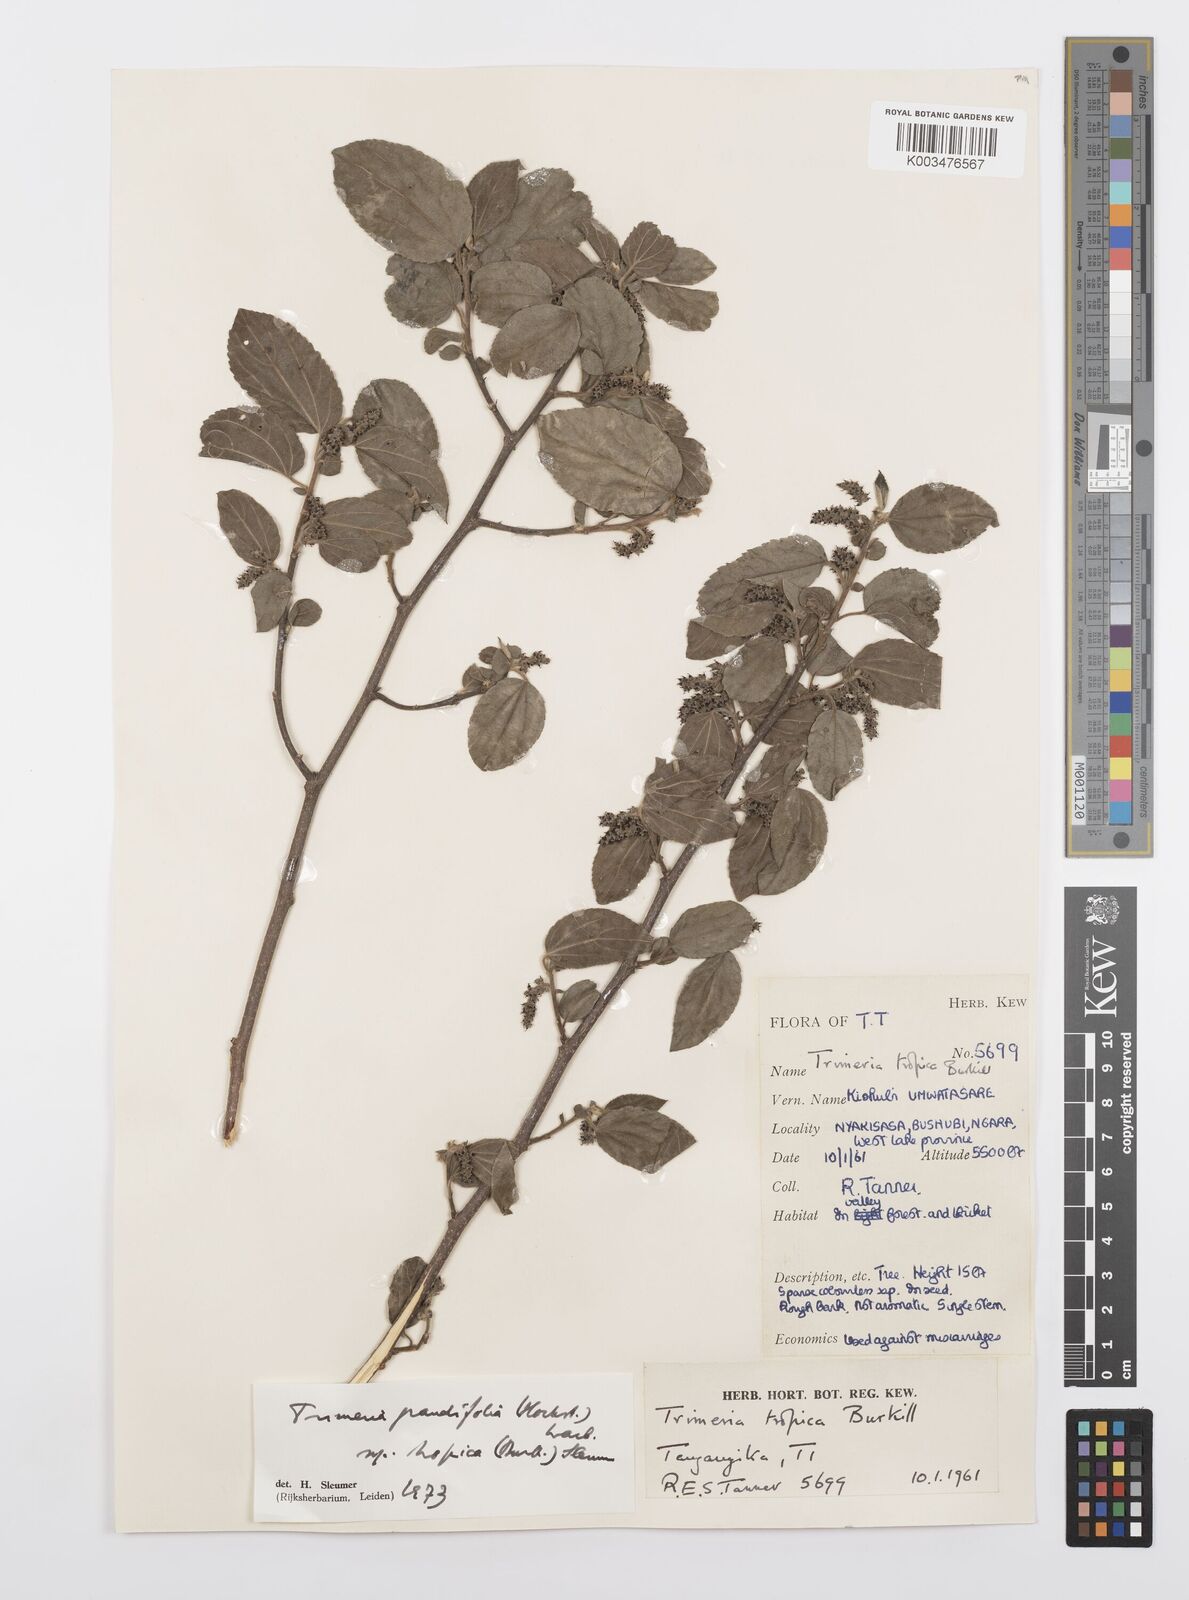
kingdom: Plantae
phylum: Tracheophyta
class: Magnoliopsida
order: Malpighiales
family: Salicaceae
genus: Trimeria
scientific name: Trimeria grandifolia
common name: Wild mulberry
